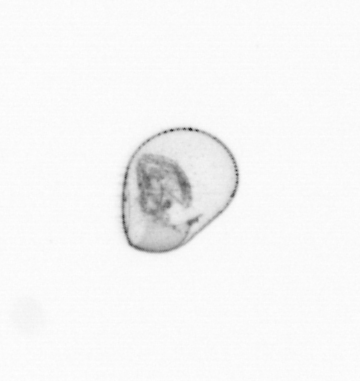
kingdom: Chromista
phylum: Myzozoa
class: Dinophyceae
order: Noctilucales
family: Noctilucaceae
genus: Noctiluca
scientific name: Noctiluca scintillans
